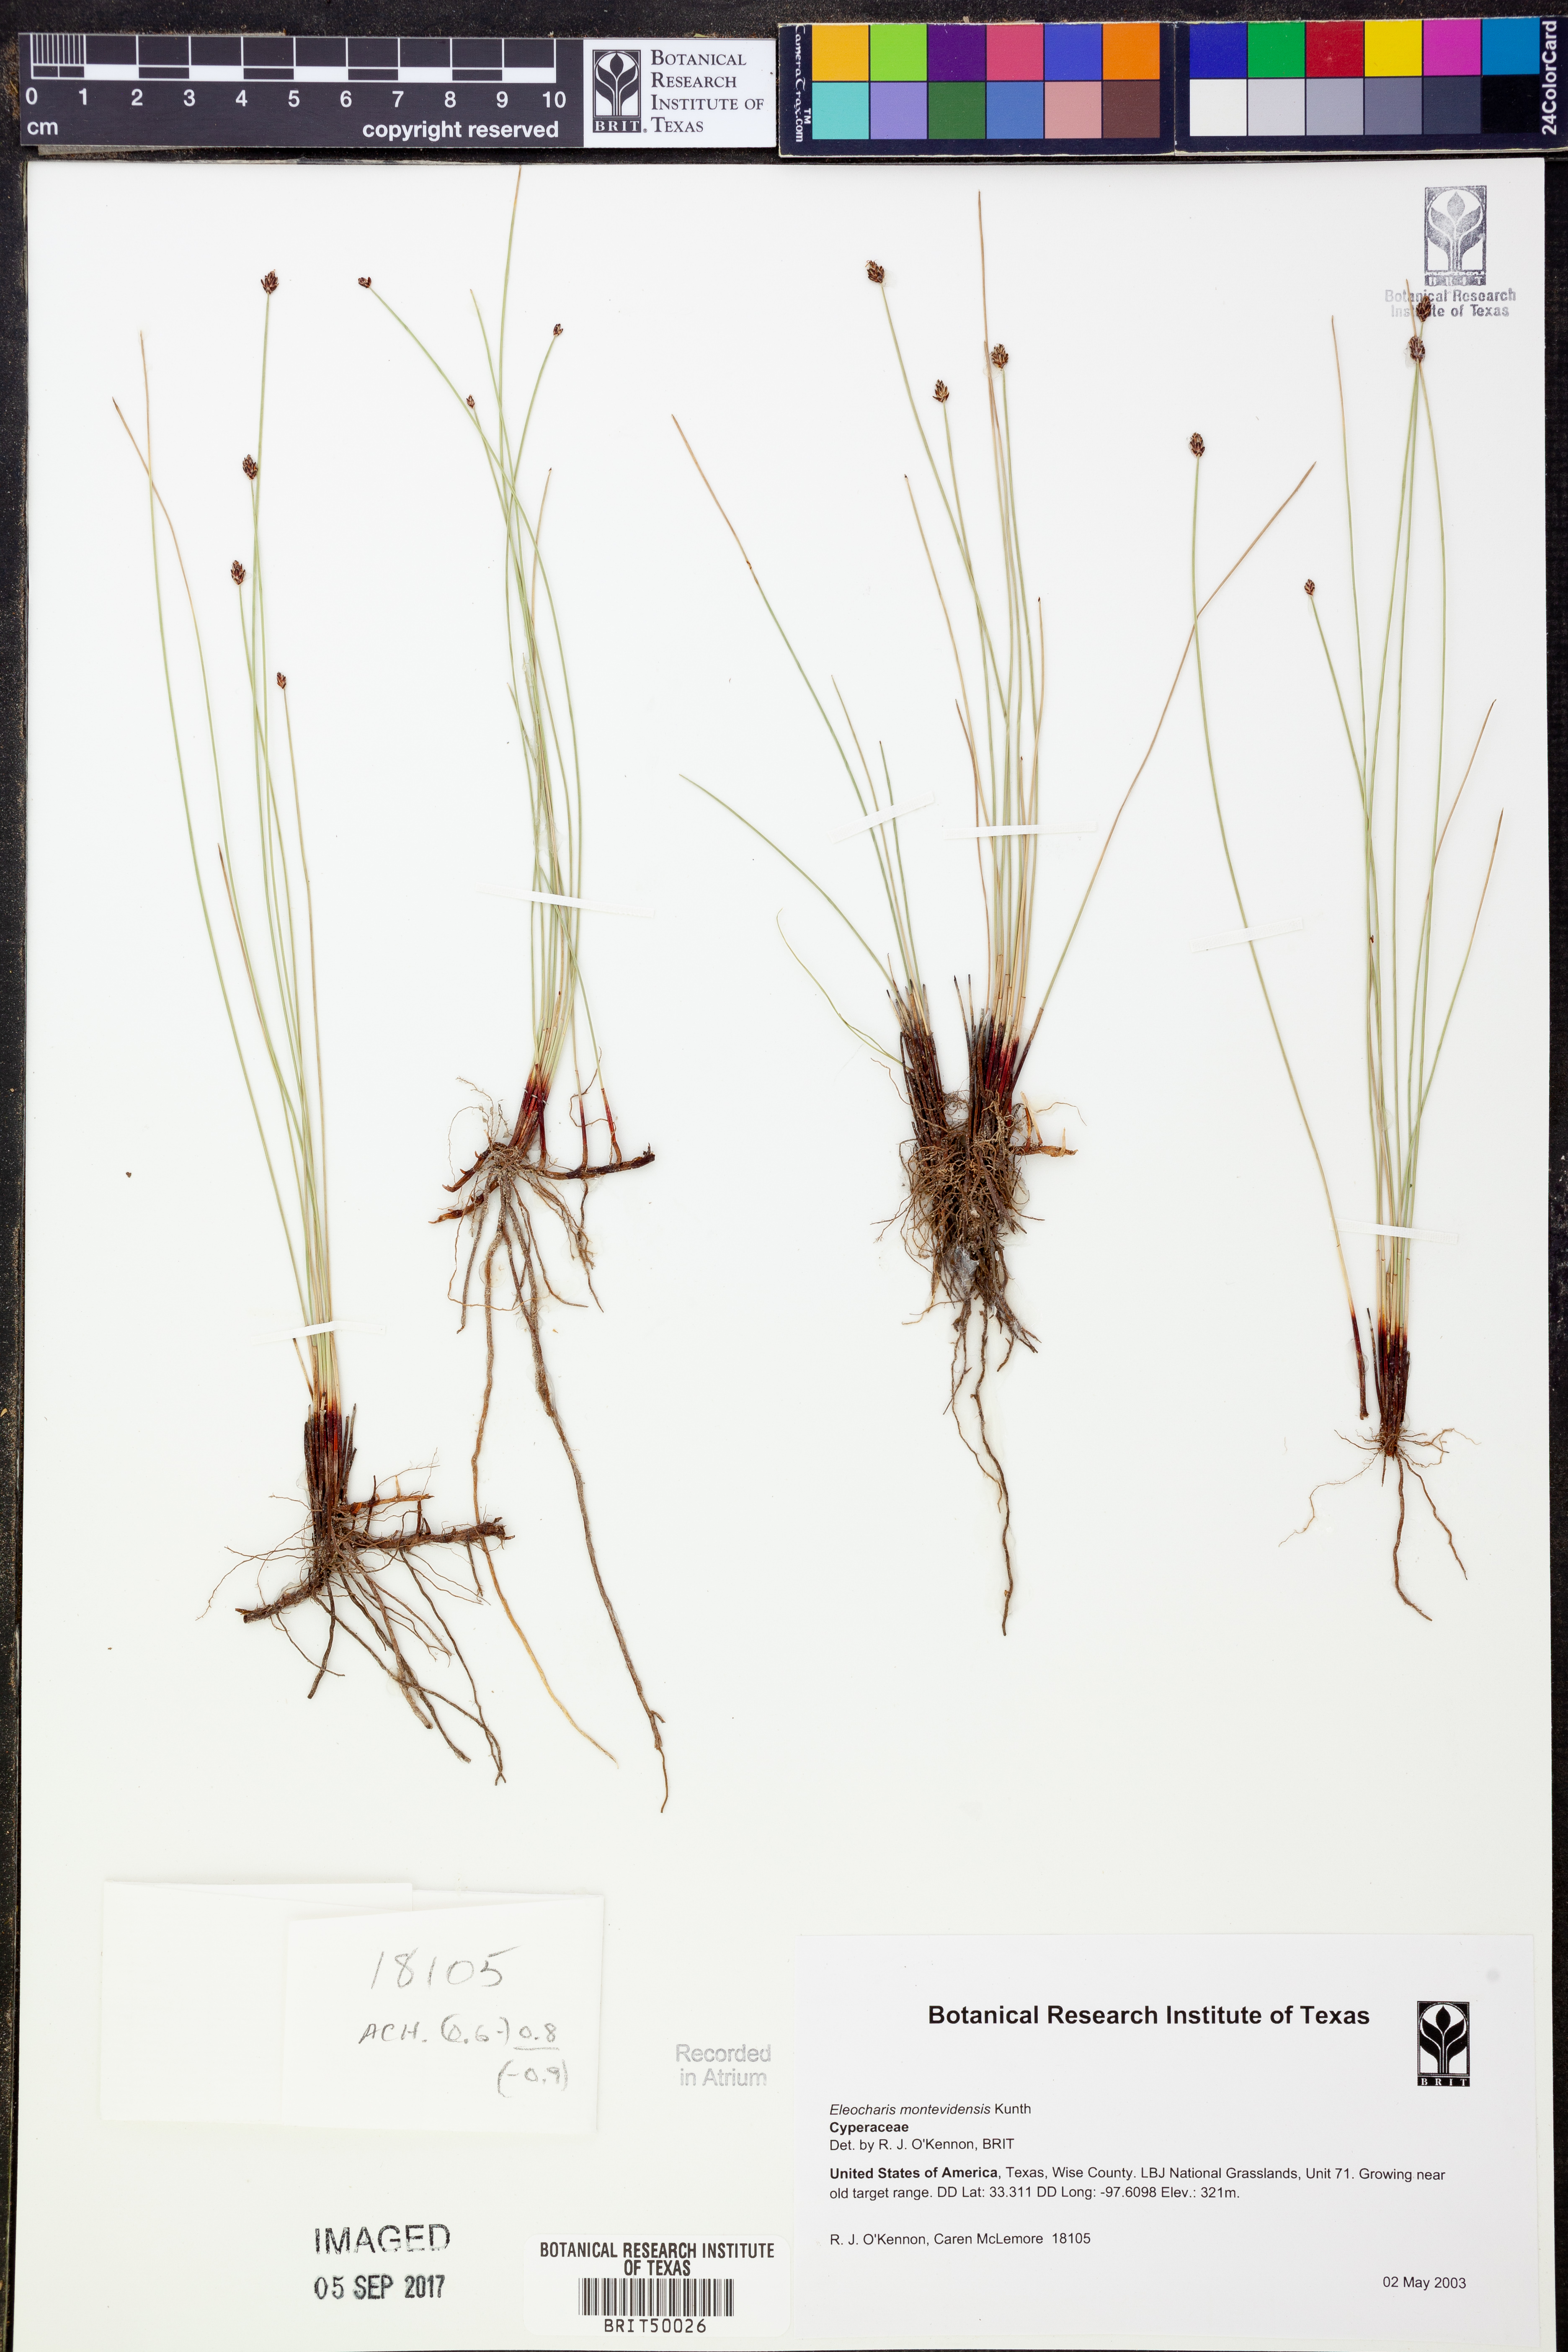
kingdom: Plantae
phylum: Tracheophyta
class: Liliopsida
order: Poales
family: Cyperaceae
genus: Eleocharis
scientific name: Eleocharis montevidensis
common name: Sand spike-rush
